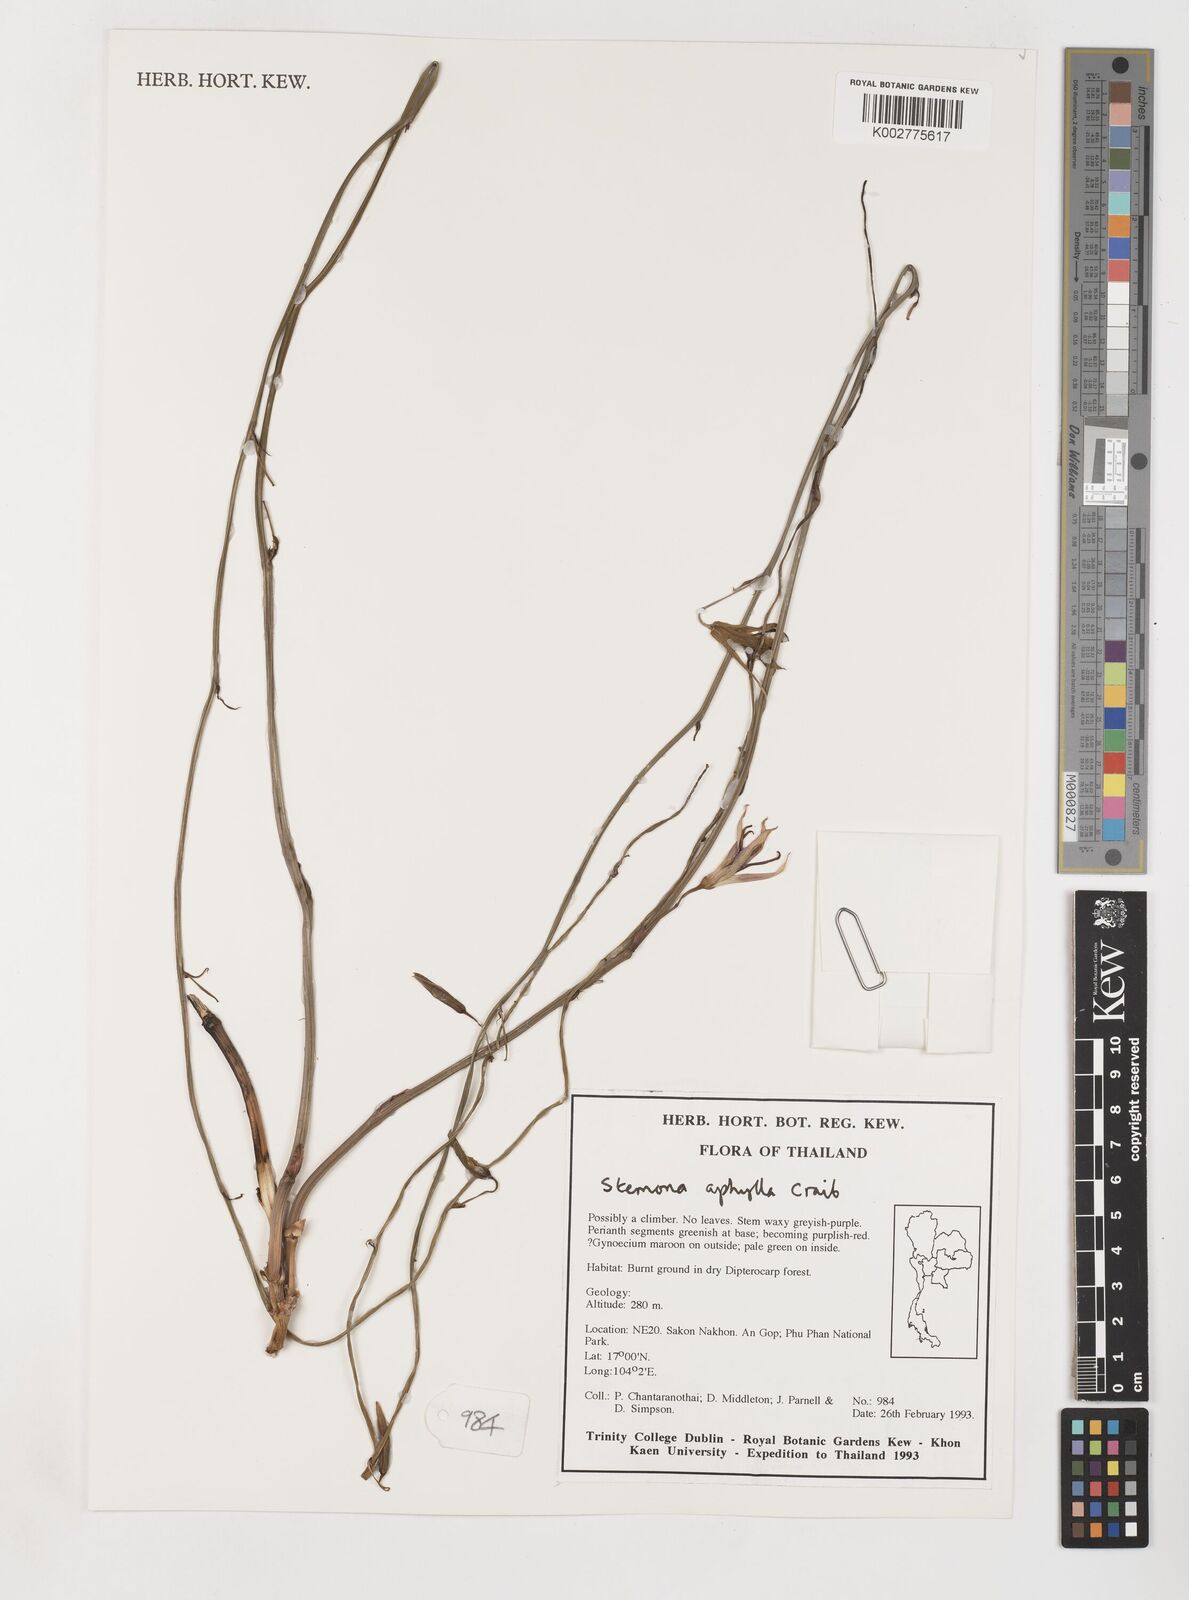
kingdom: Plantae
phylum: Tracheophyta
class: Liliopsida
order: Pandanales
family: Stemonaceae
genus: Stemona
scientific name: Stemona aphylla
